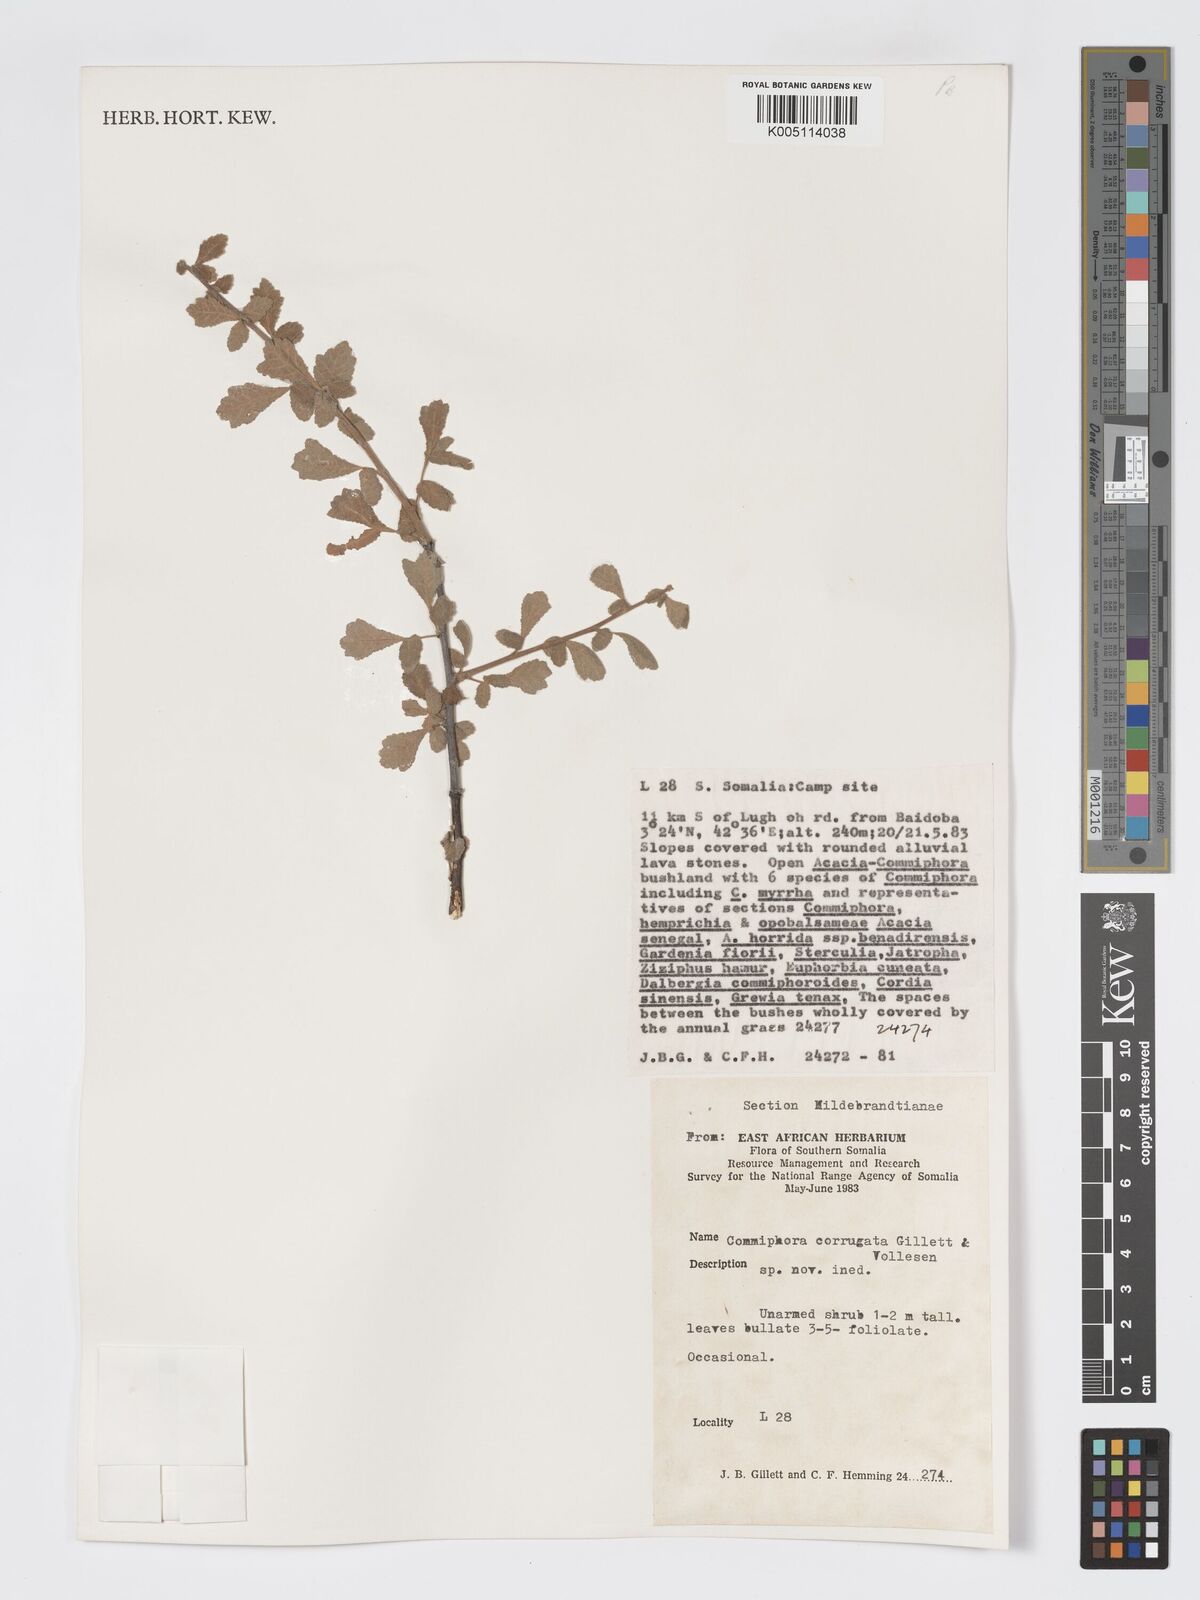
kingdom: Plantae
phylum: Tracheophyta
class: Magnoliopsida
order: Sapindales
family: Burseraceae
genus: Commiphora
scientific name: Commiphora corrugata
